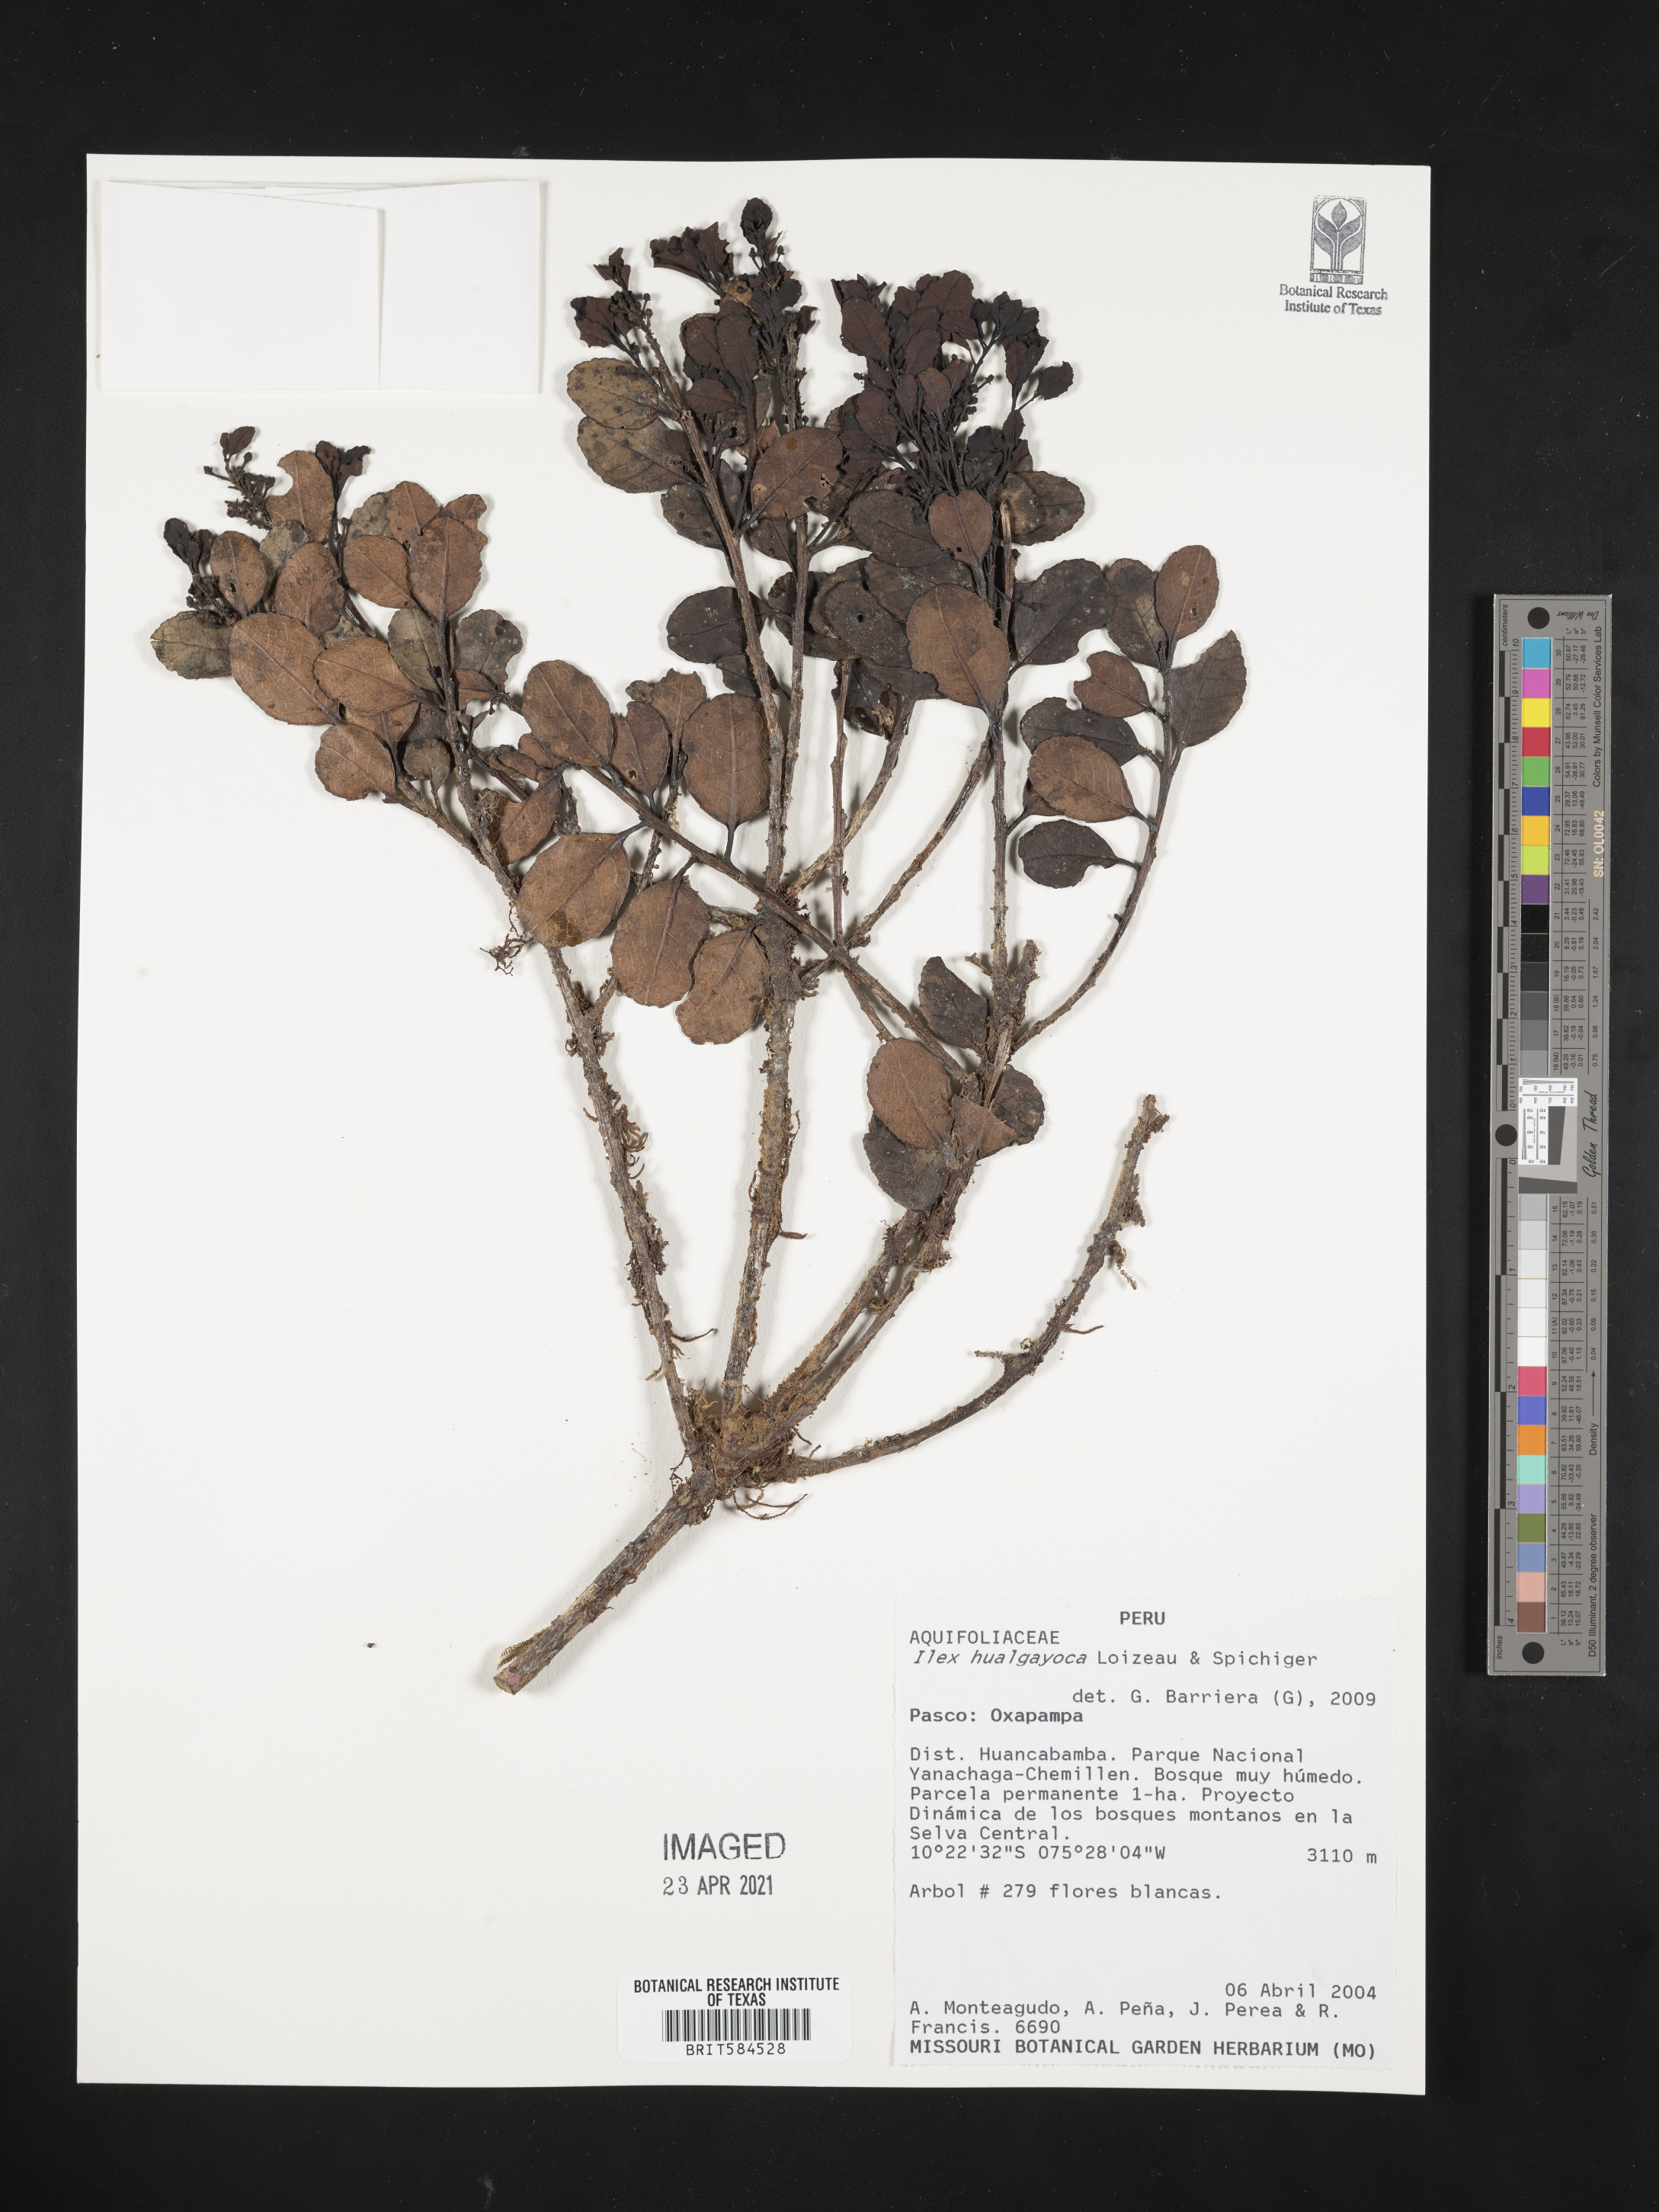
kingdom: Plantae
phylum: Tracheophyta
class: Magnoliopsida
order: Aquifoliales
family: Aquifoliaceae
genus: Ilex
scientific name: Ilex hualgayoca
